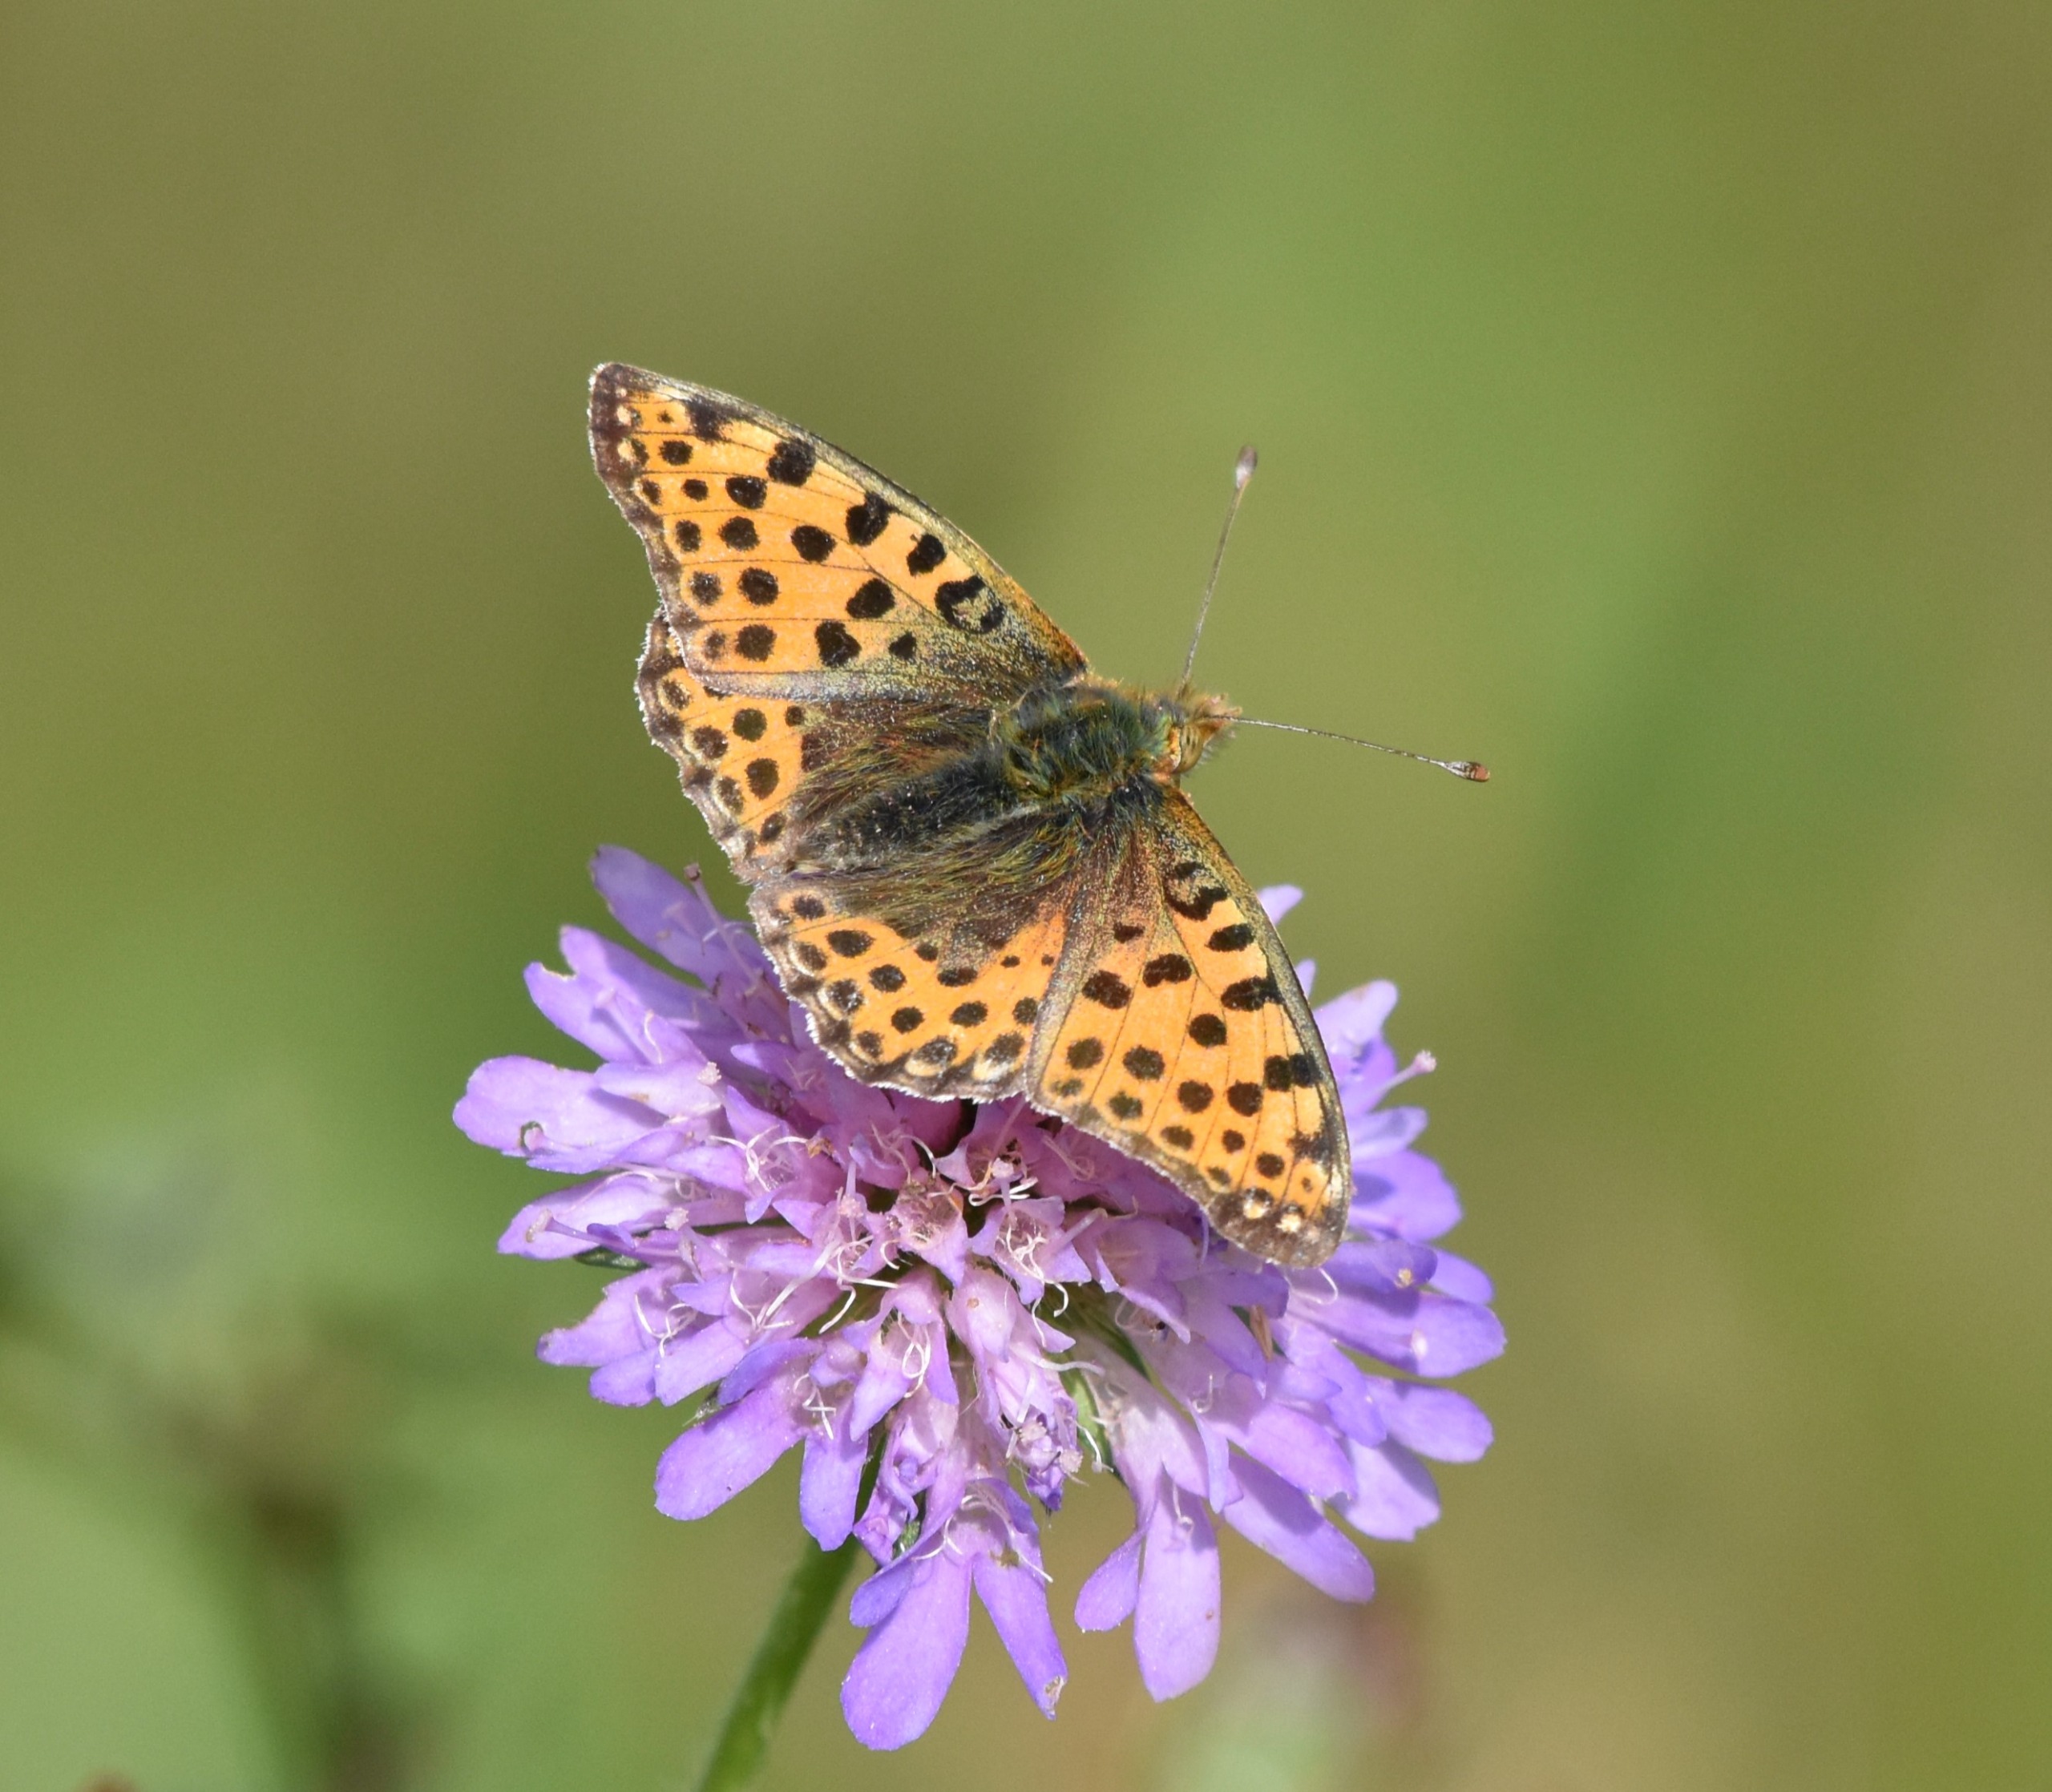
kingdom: Animalia
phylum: Arthropoda
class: Insecta
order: Lepidoptera
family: Nymphalidae
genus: Issoria
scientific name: Issoria lathonia
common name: Storplettet perlemorsommerfugl
